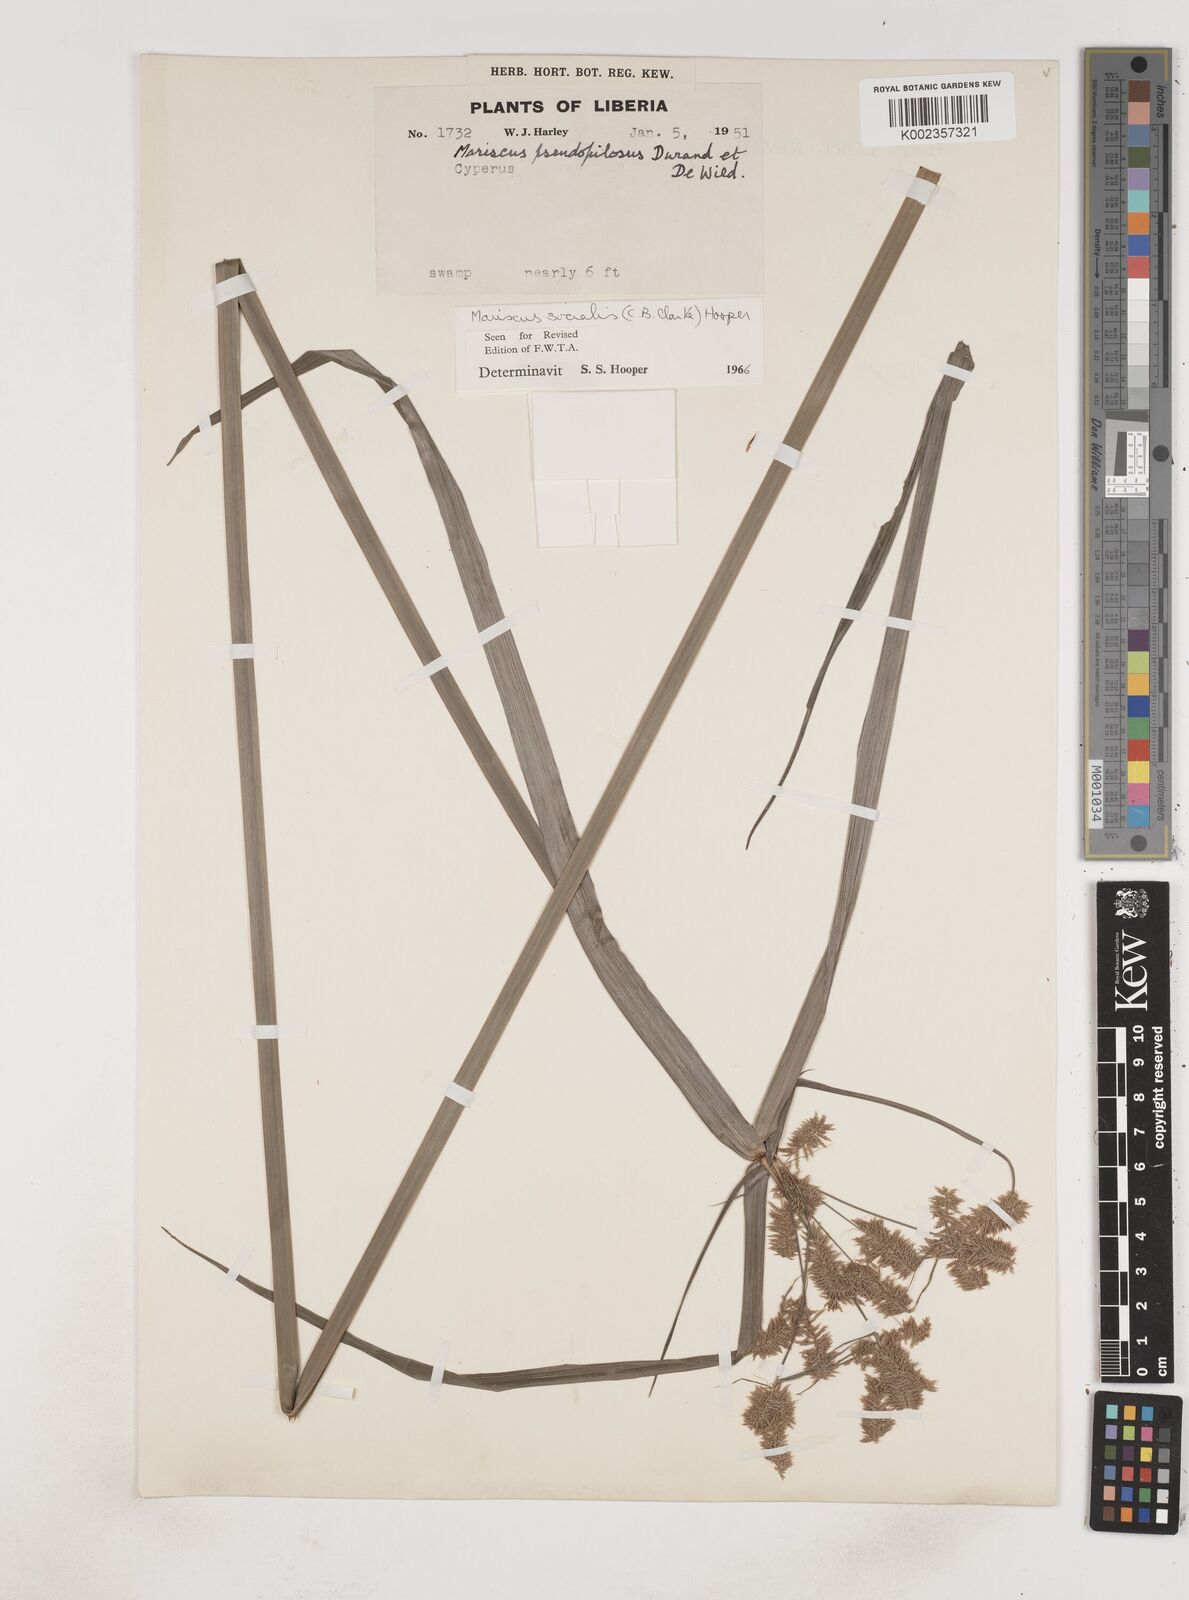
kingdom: Plantae
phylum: Tracheophyta
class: Liliopsida
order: Poales
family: Cyperaceae
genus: Cyperus
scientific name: Cyperus pseudopilosus
